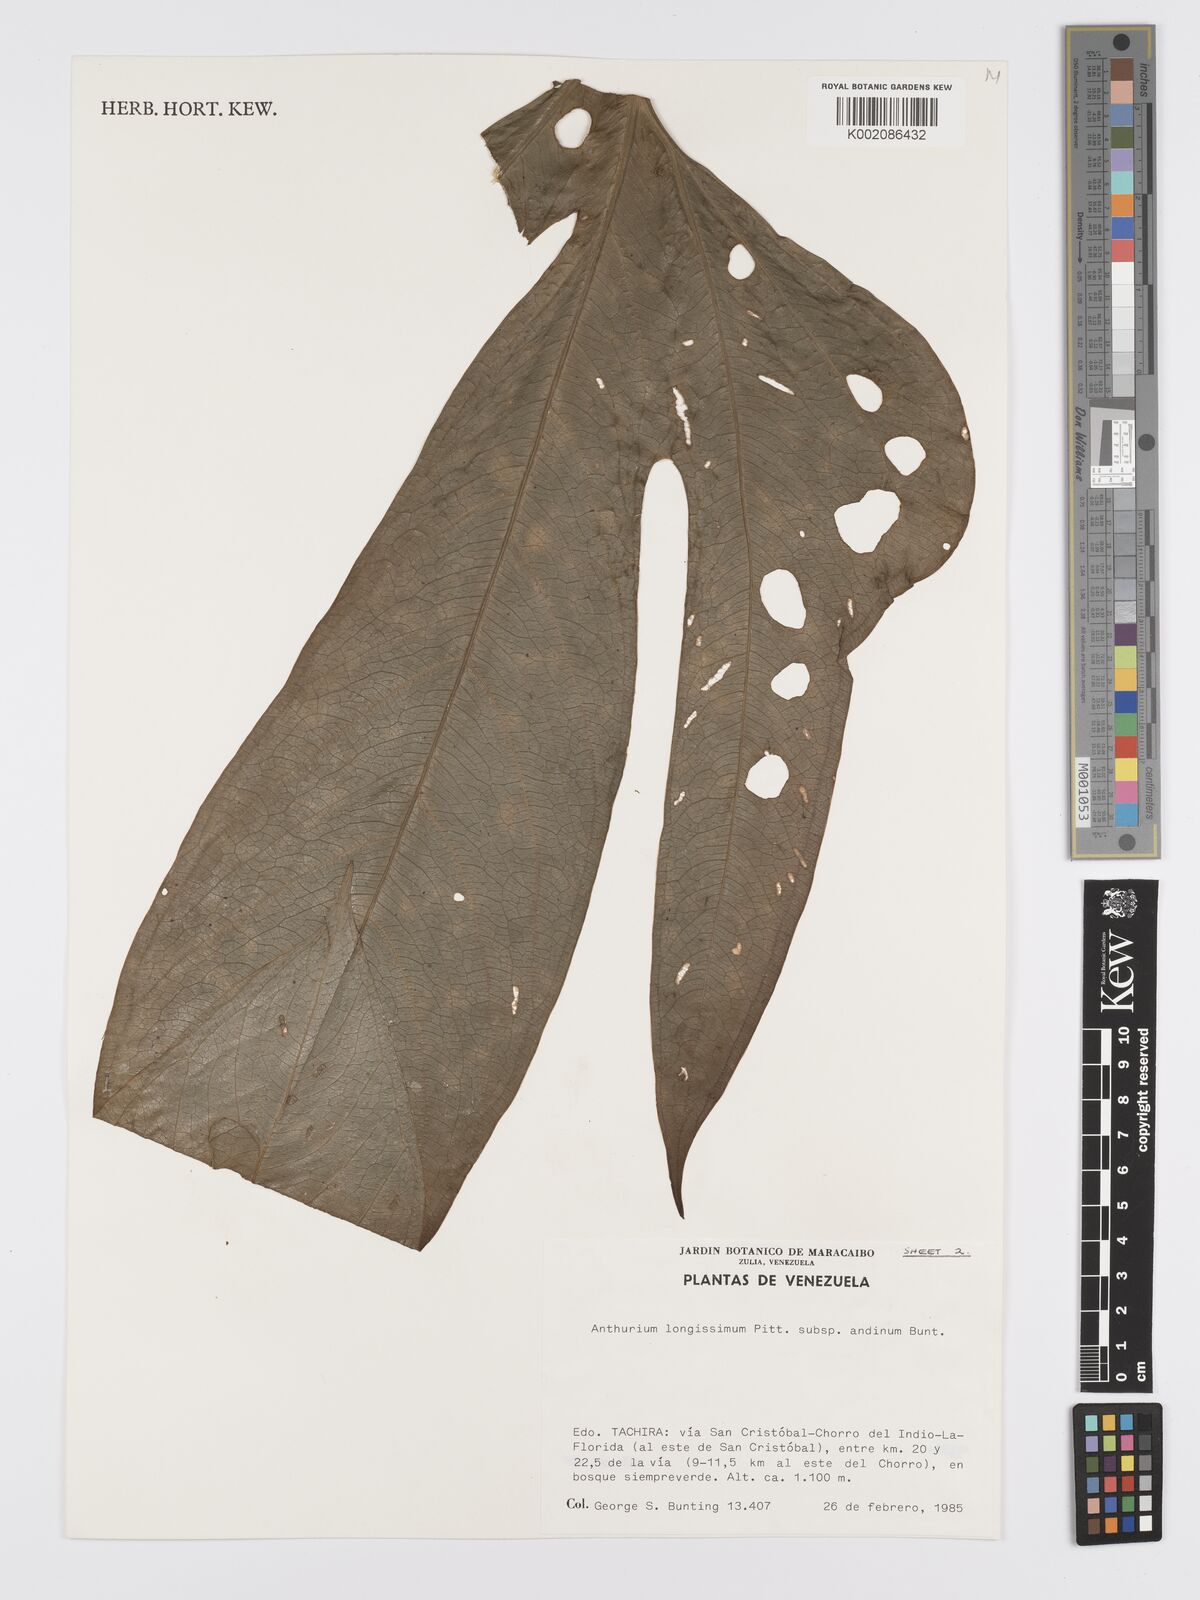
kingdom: Plantae
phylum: Tracheophyta
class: Liliopsida
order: Alismatales
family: Araceae
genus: Anthurium
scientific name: Anthurium longissimum
